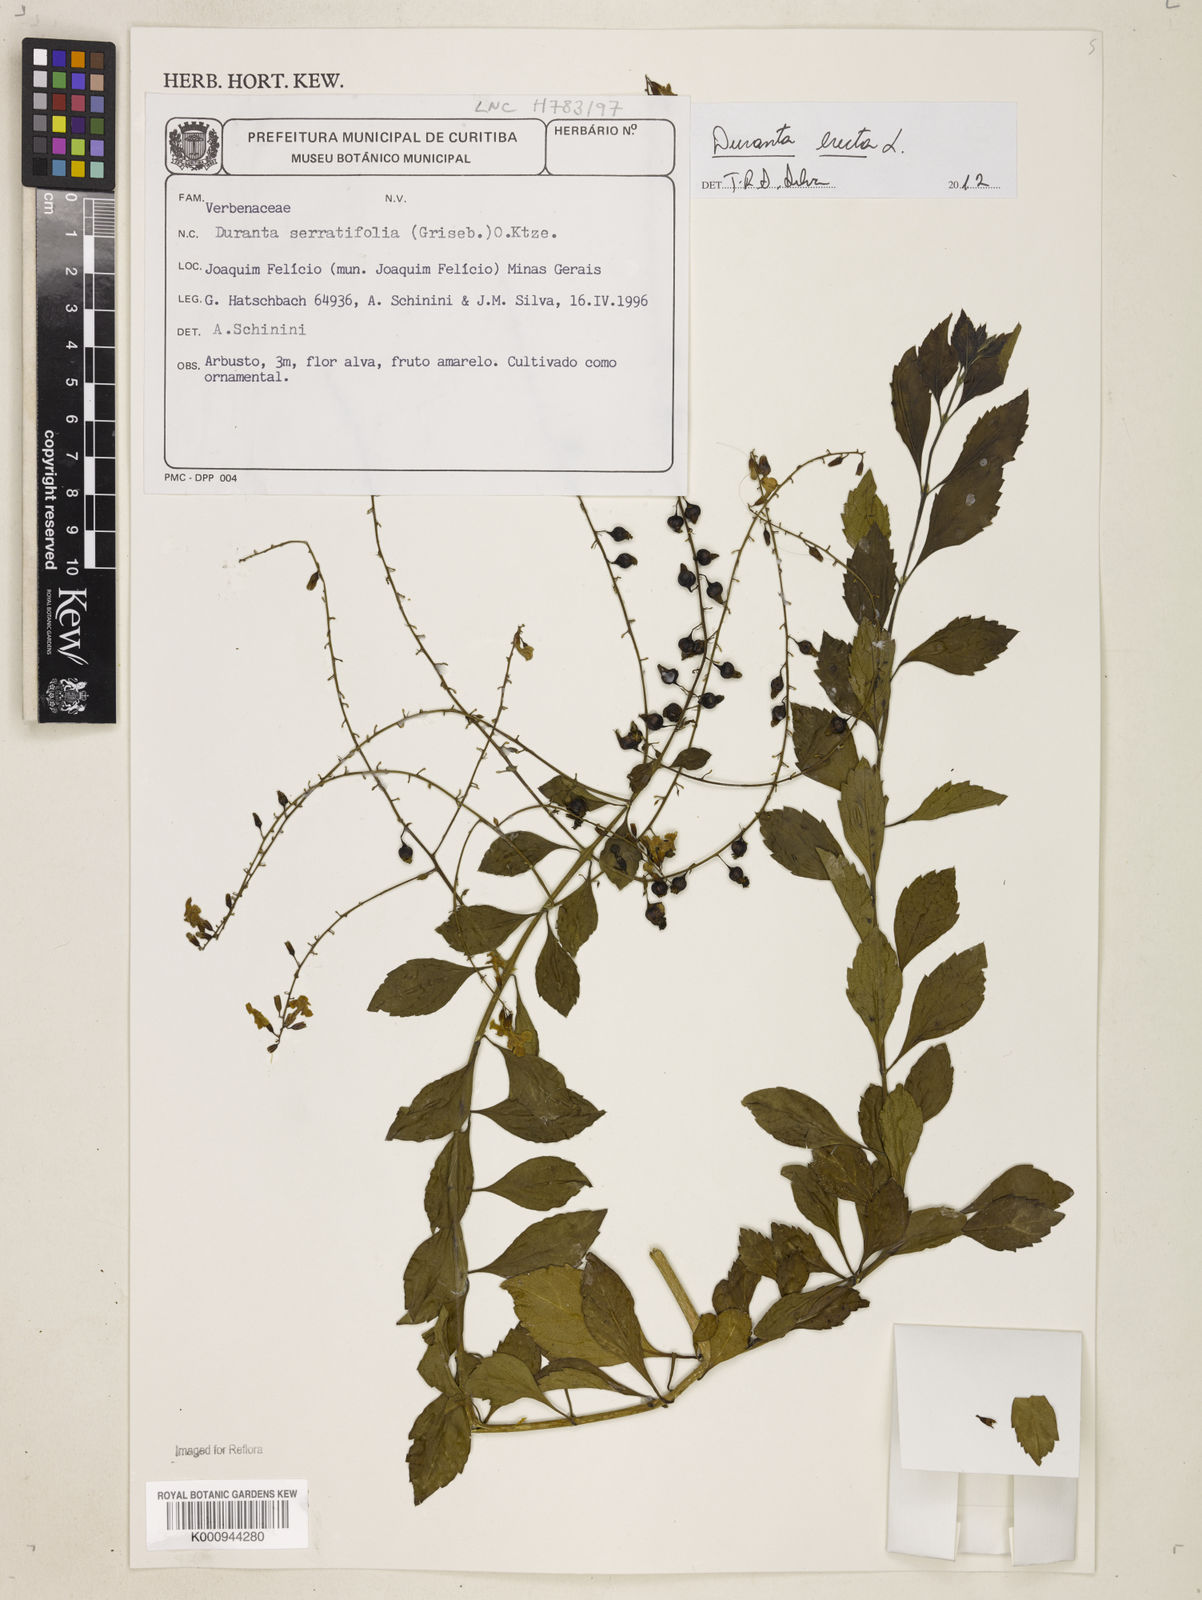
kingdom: Plantae
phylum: Tracheophyta
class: Magnoliopsida
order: Lamiales
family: Verbenaceae
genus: Citharexylum
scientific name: Citharexylum
